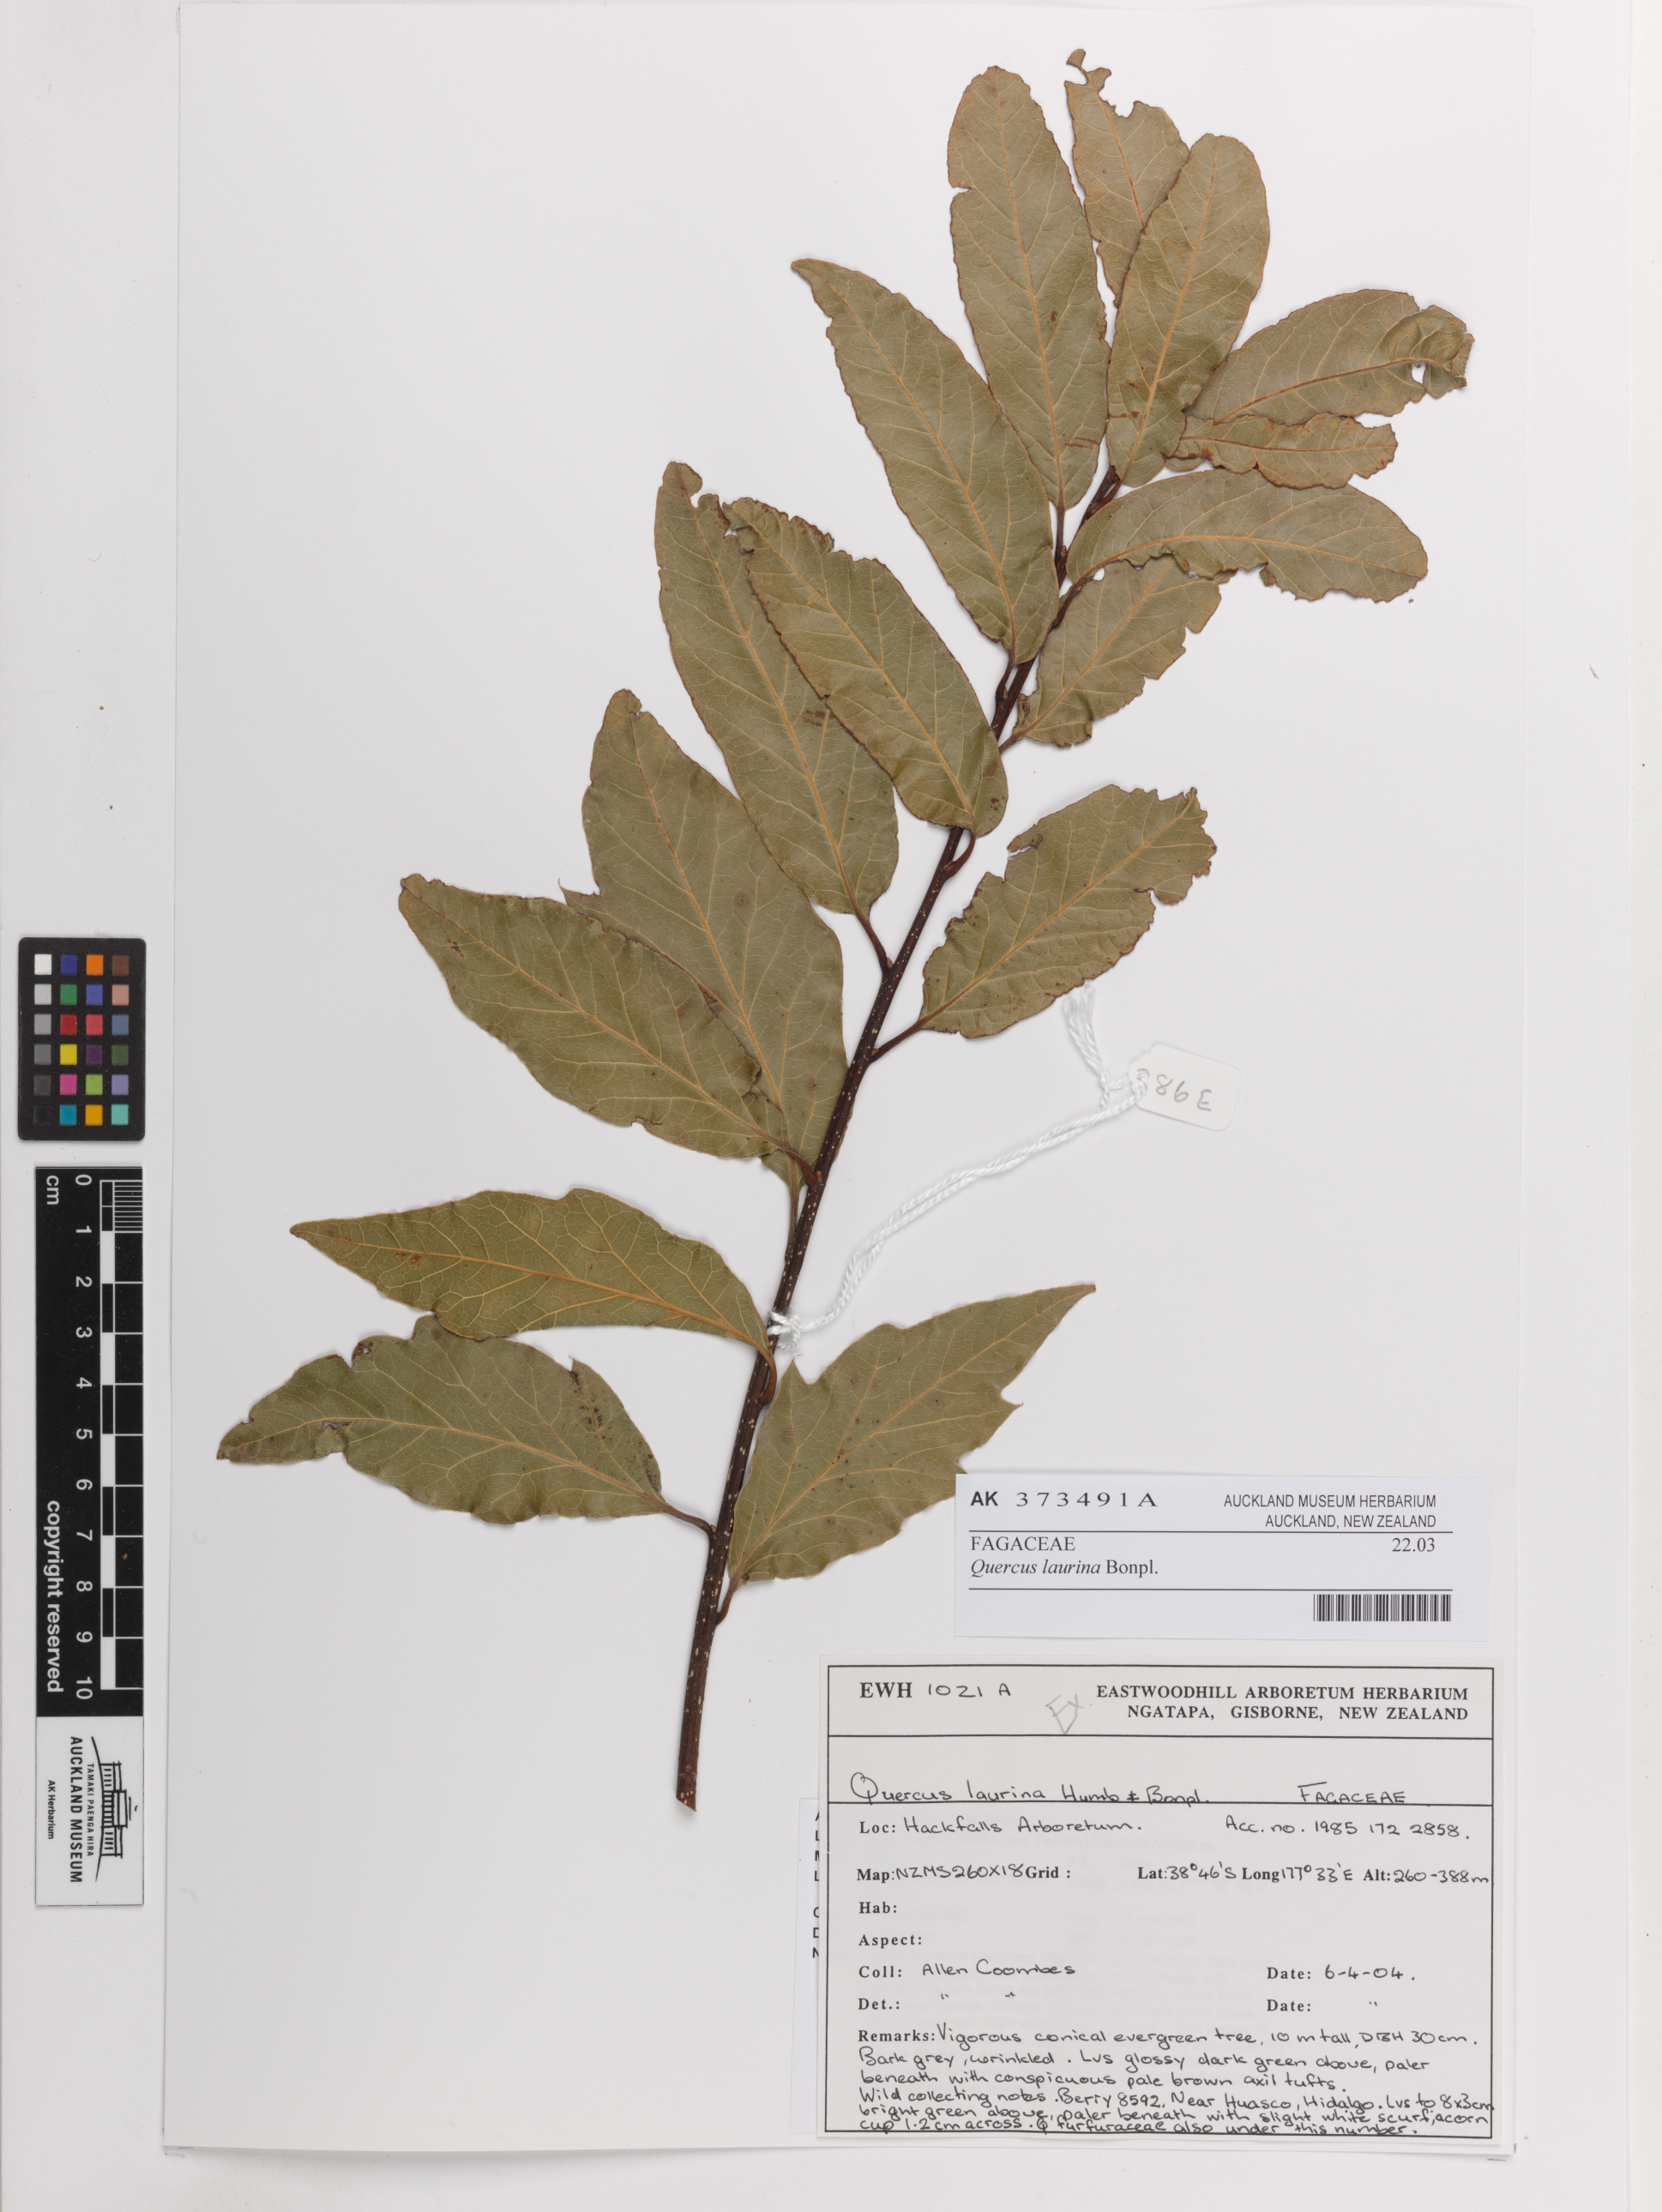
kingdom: Plantae
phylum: Tracheophyta
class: Magnoliopsida
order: Fagales
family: Fagaceae
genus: Quercus
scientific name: Quercus laurina
